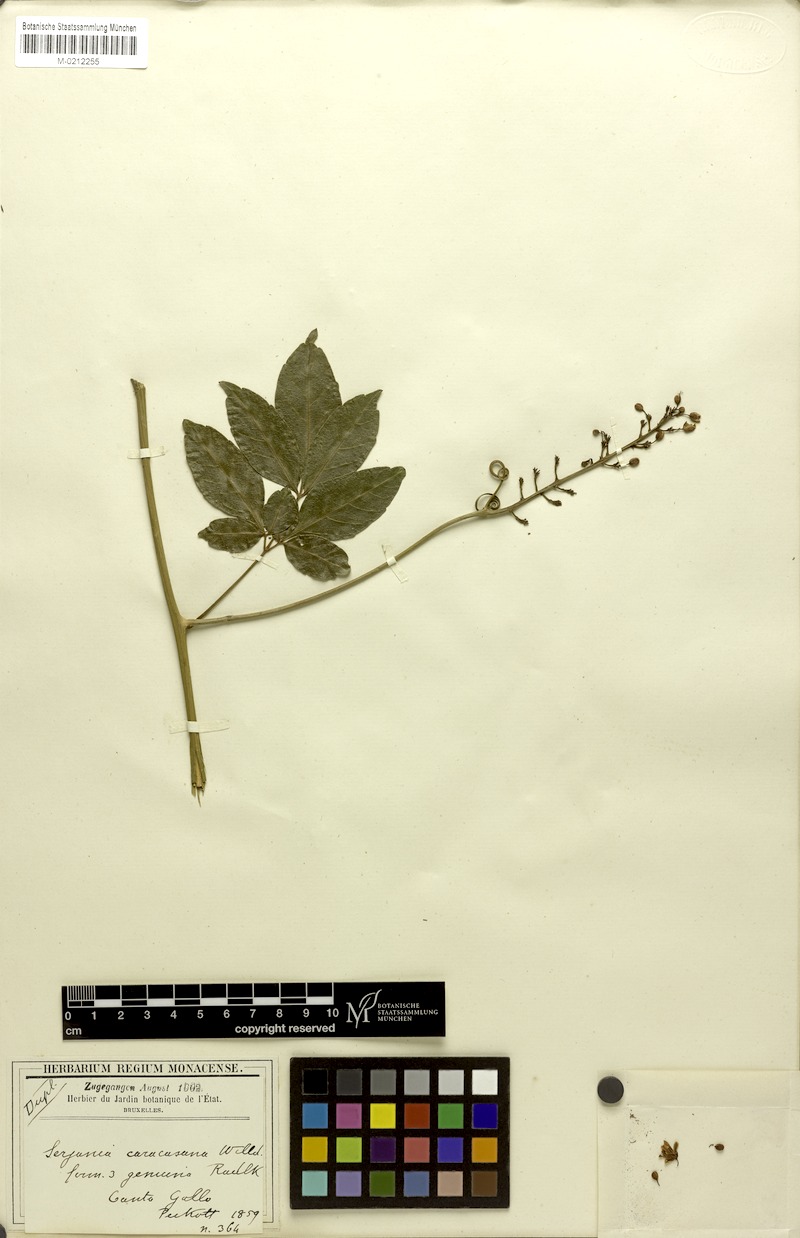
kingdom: Plantae
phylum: Tracheophyta
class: Magnoliopsida
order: Sapindales
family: Sapindaceae
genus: Serjania
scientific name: Serjania caracasana
